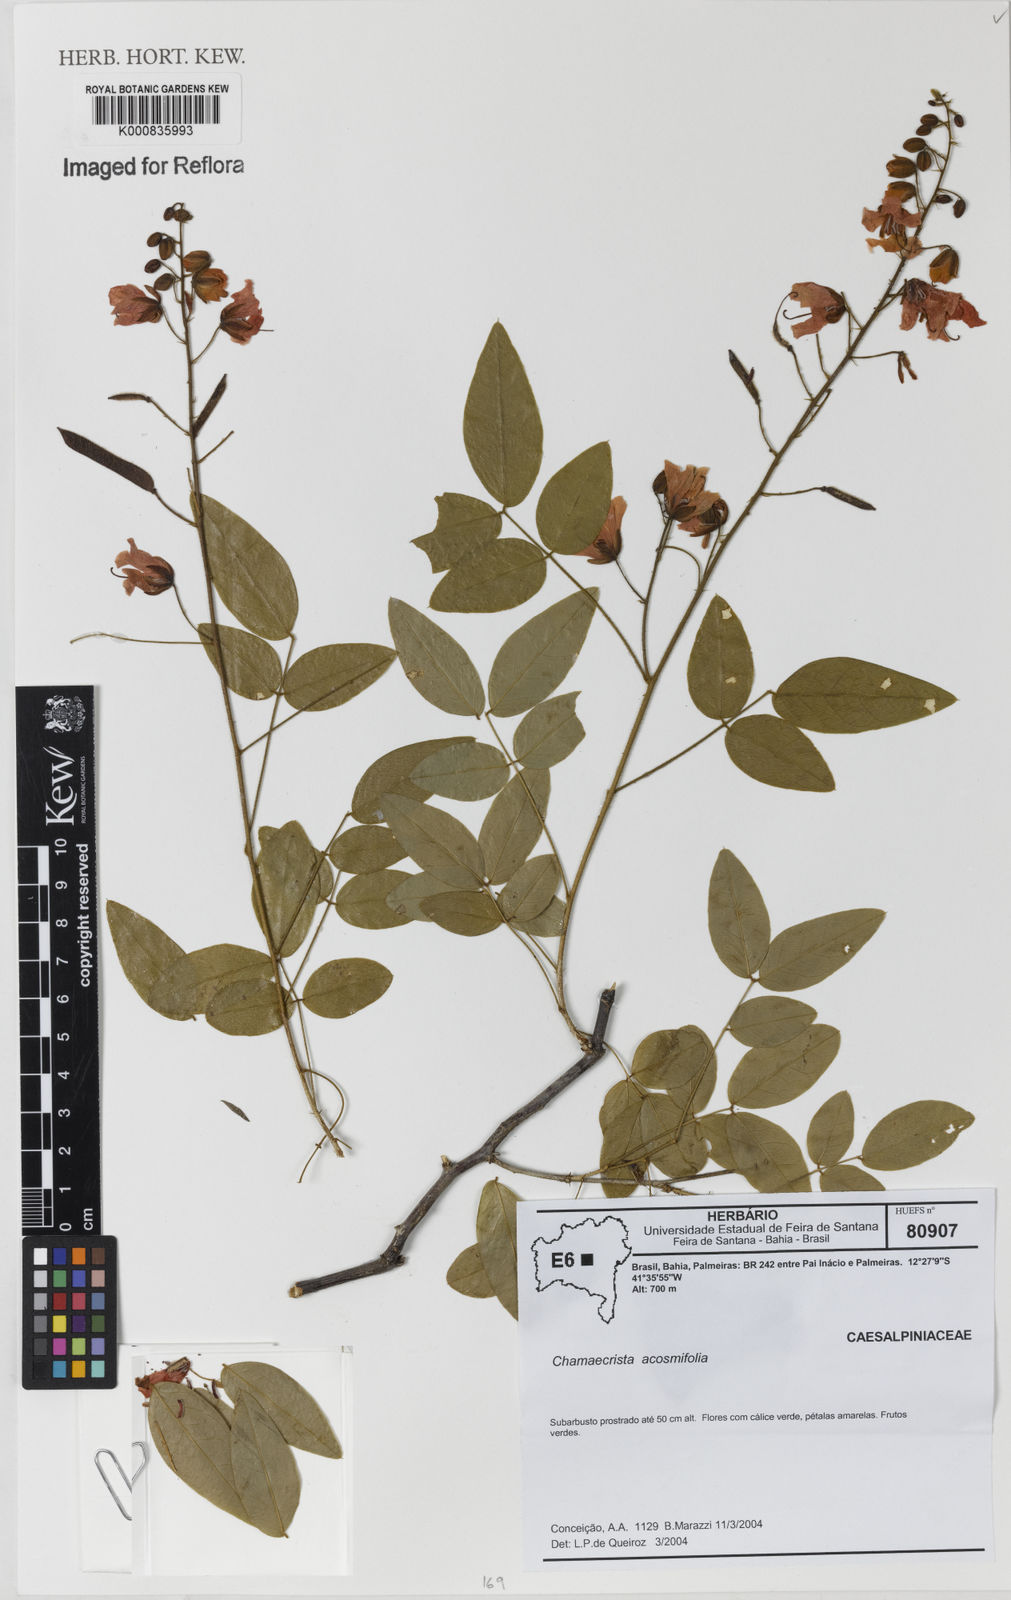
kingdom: Plantae
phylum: Tracheophyta
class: Magnoliopsida
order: Fabales
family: Fabaceae
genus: Chamaecrista
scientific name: Chamaecrista acosmifolia
